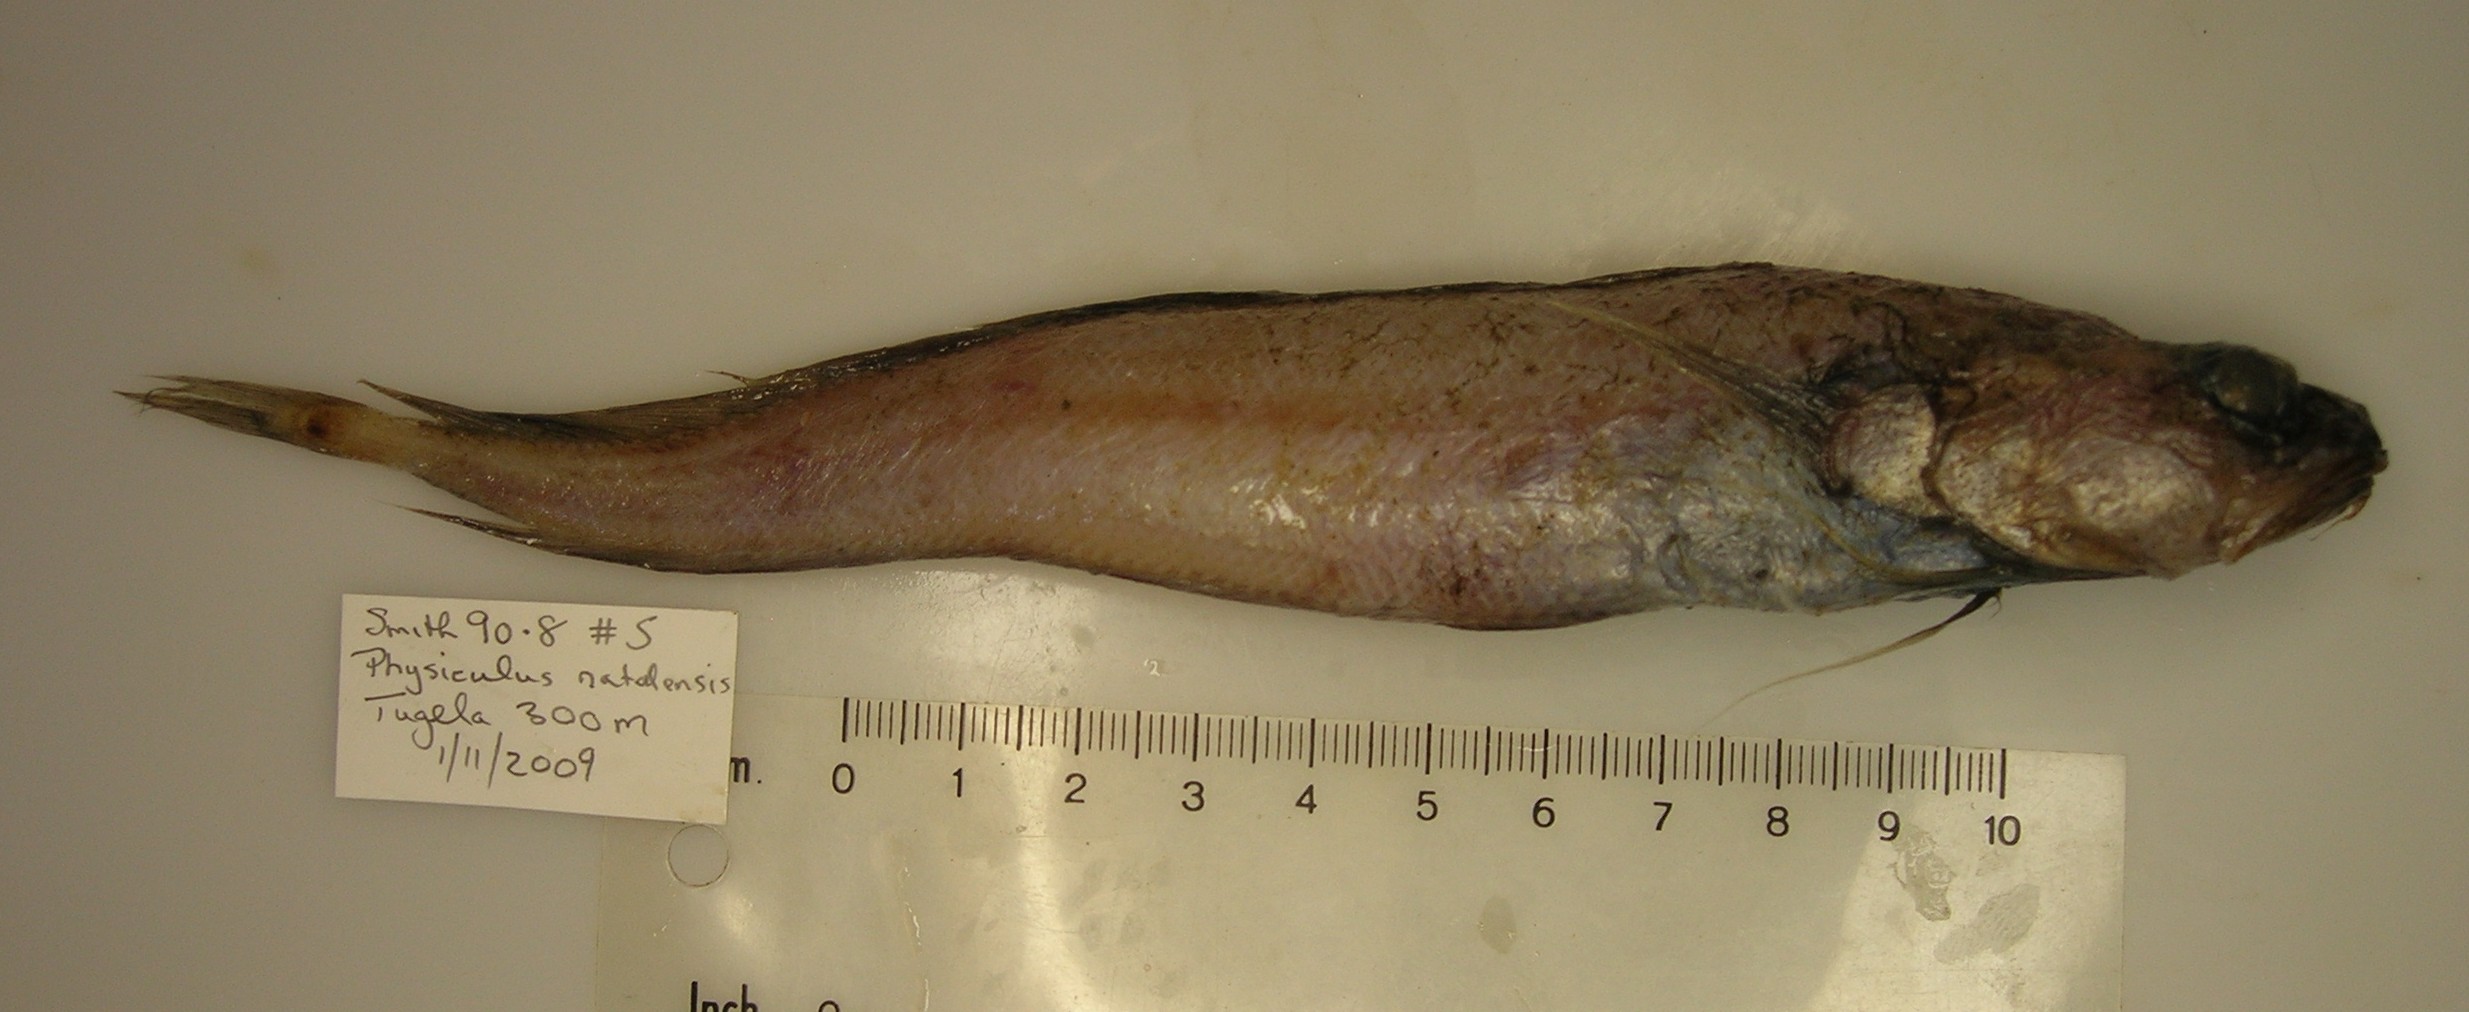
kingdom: Animalia
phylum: Chordata
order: Gadiformes
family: Moridae
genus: Physiculus
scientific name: Physiculus natalensis
